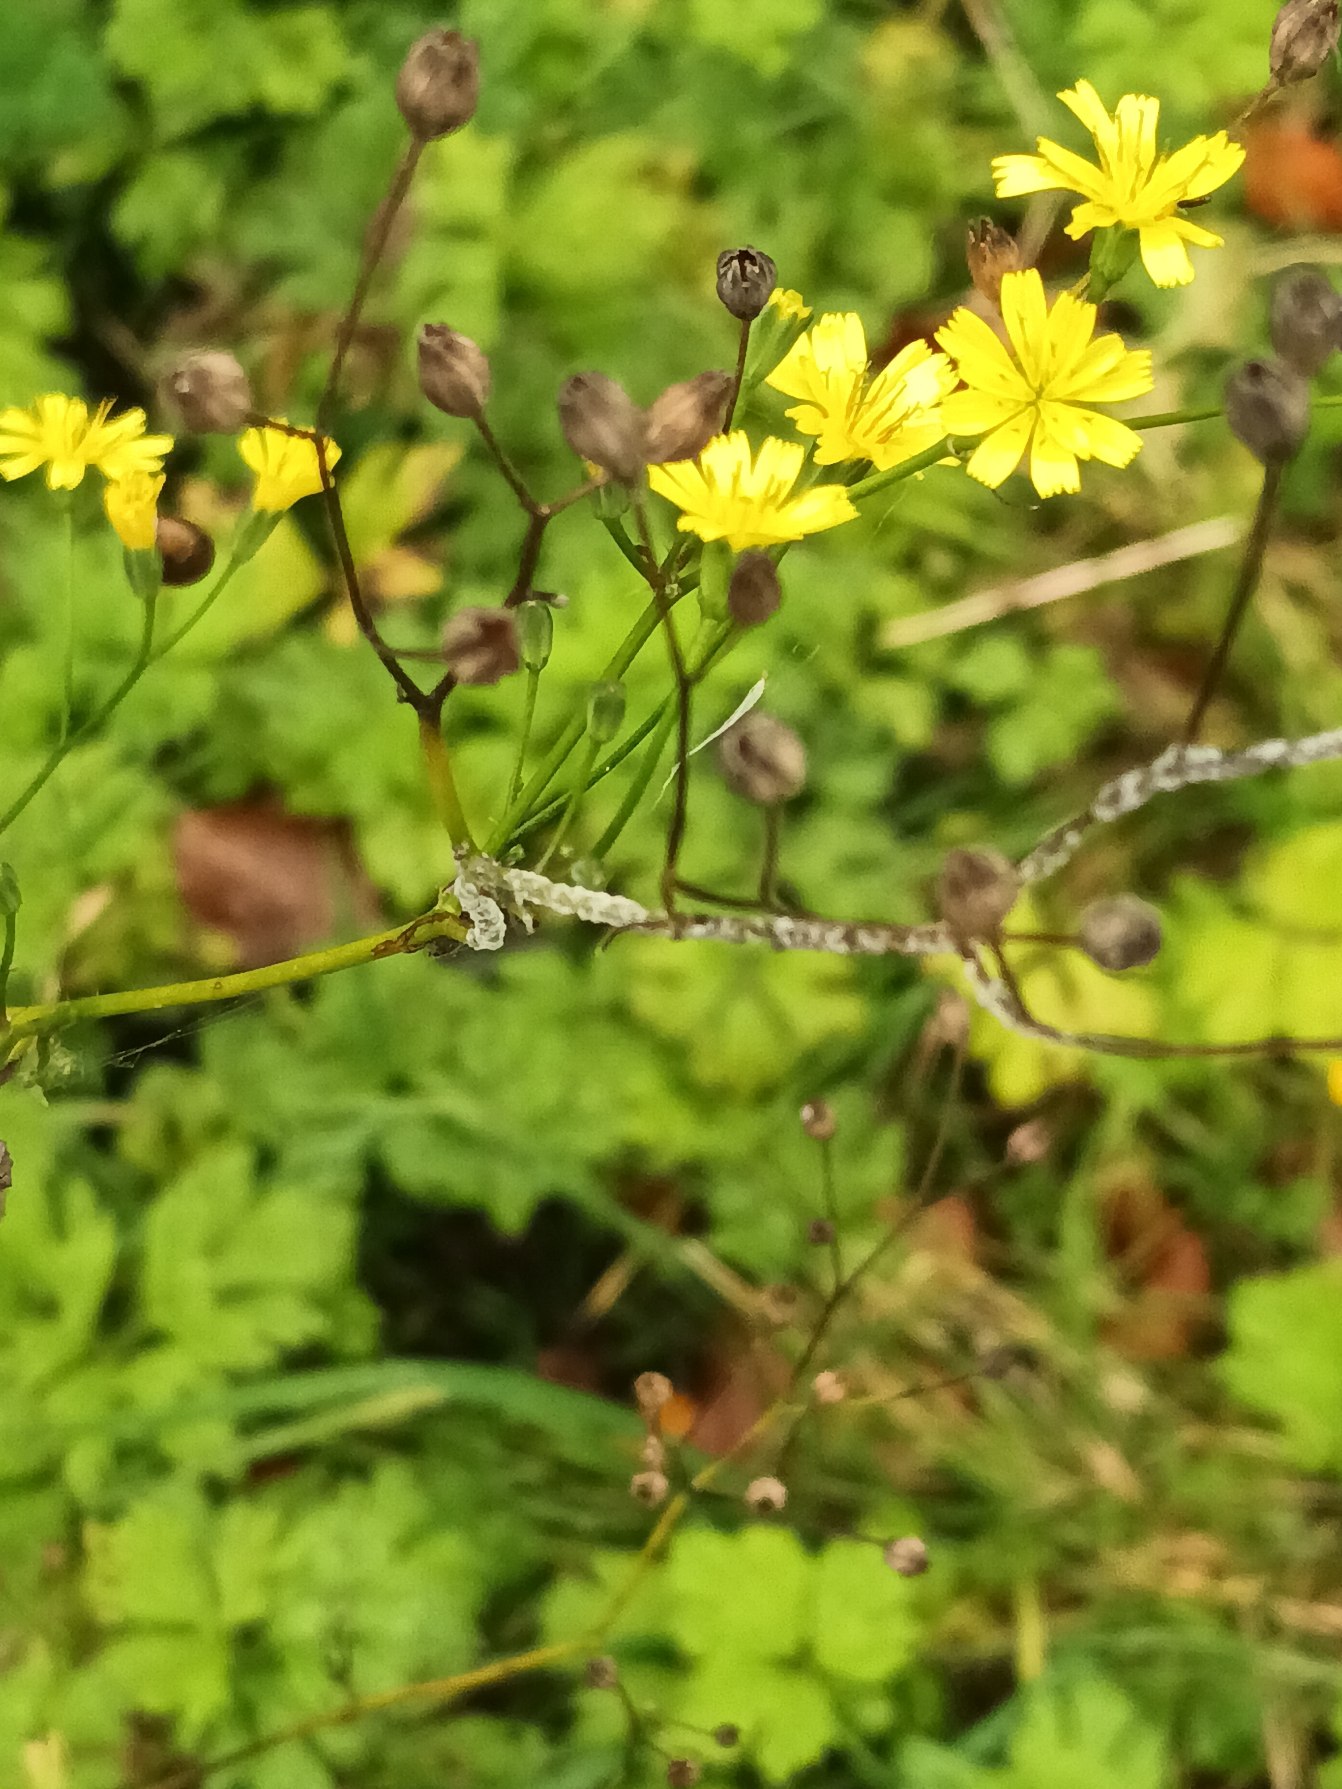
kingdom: Plantae
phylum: Tracheophyta
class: Magnoliopsida
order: Asterales
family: Asteraceae
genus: Lapsana
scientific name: Lapsana communis
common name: Haremad
